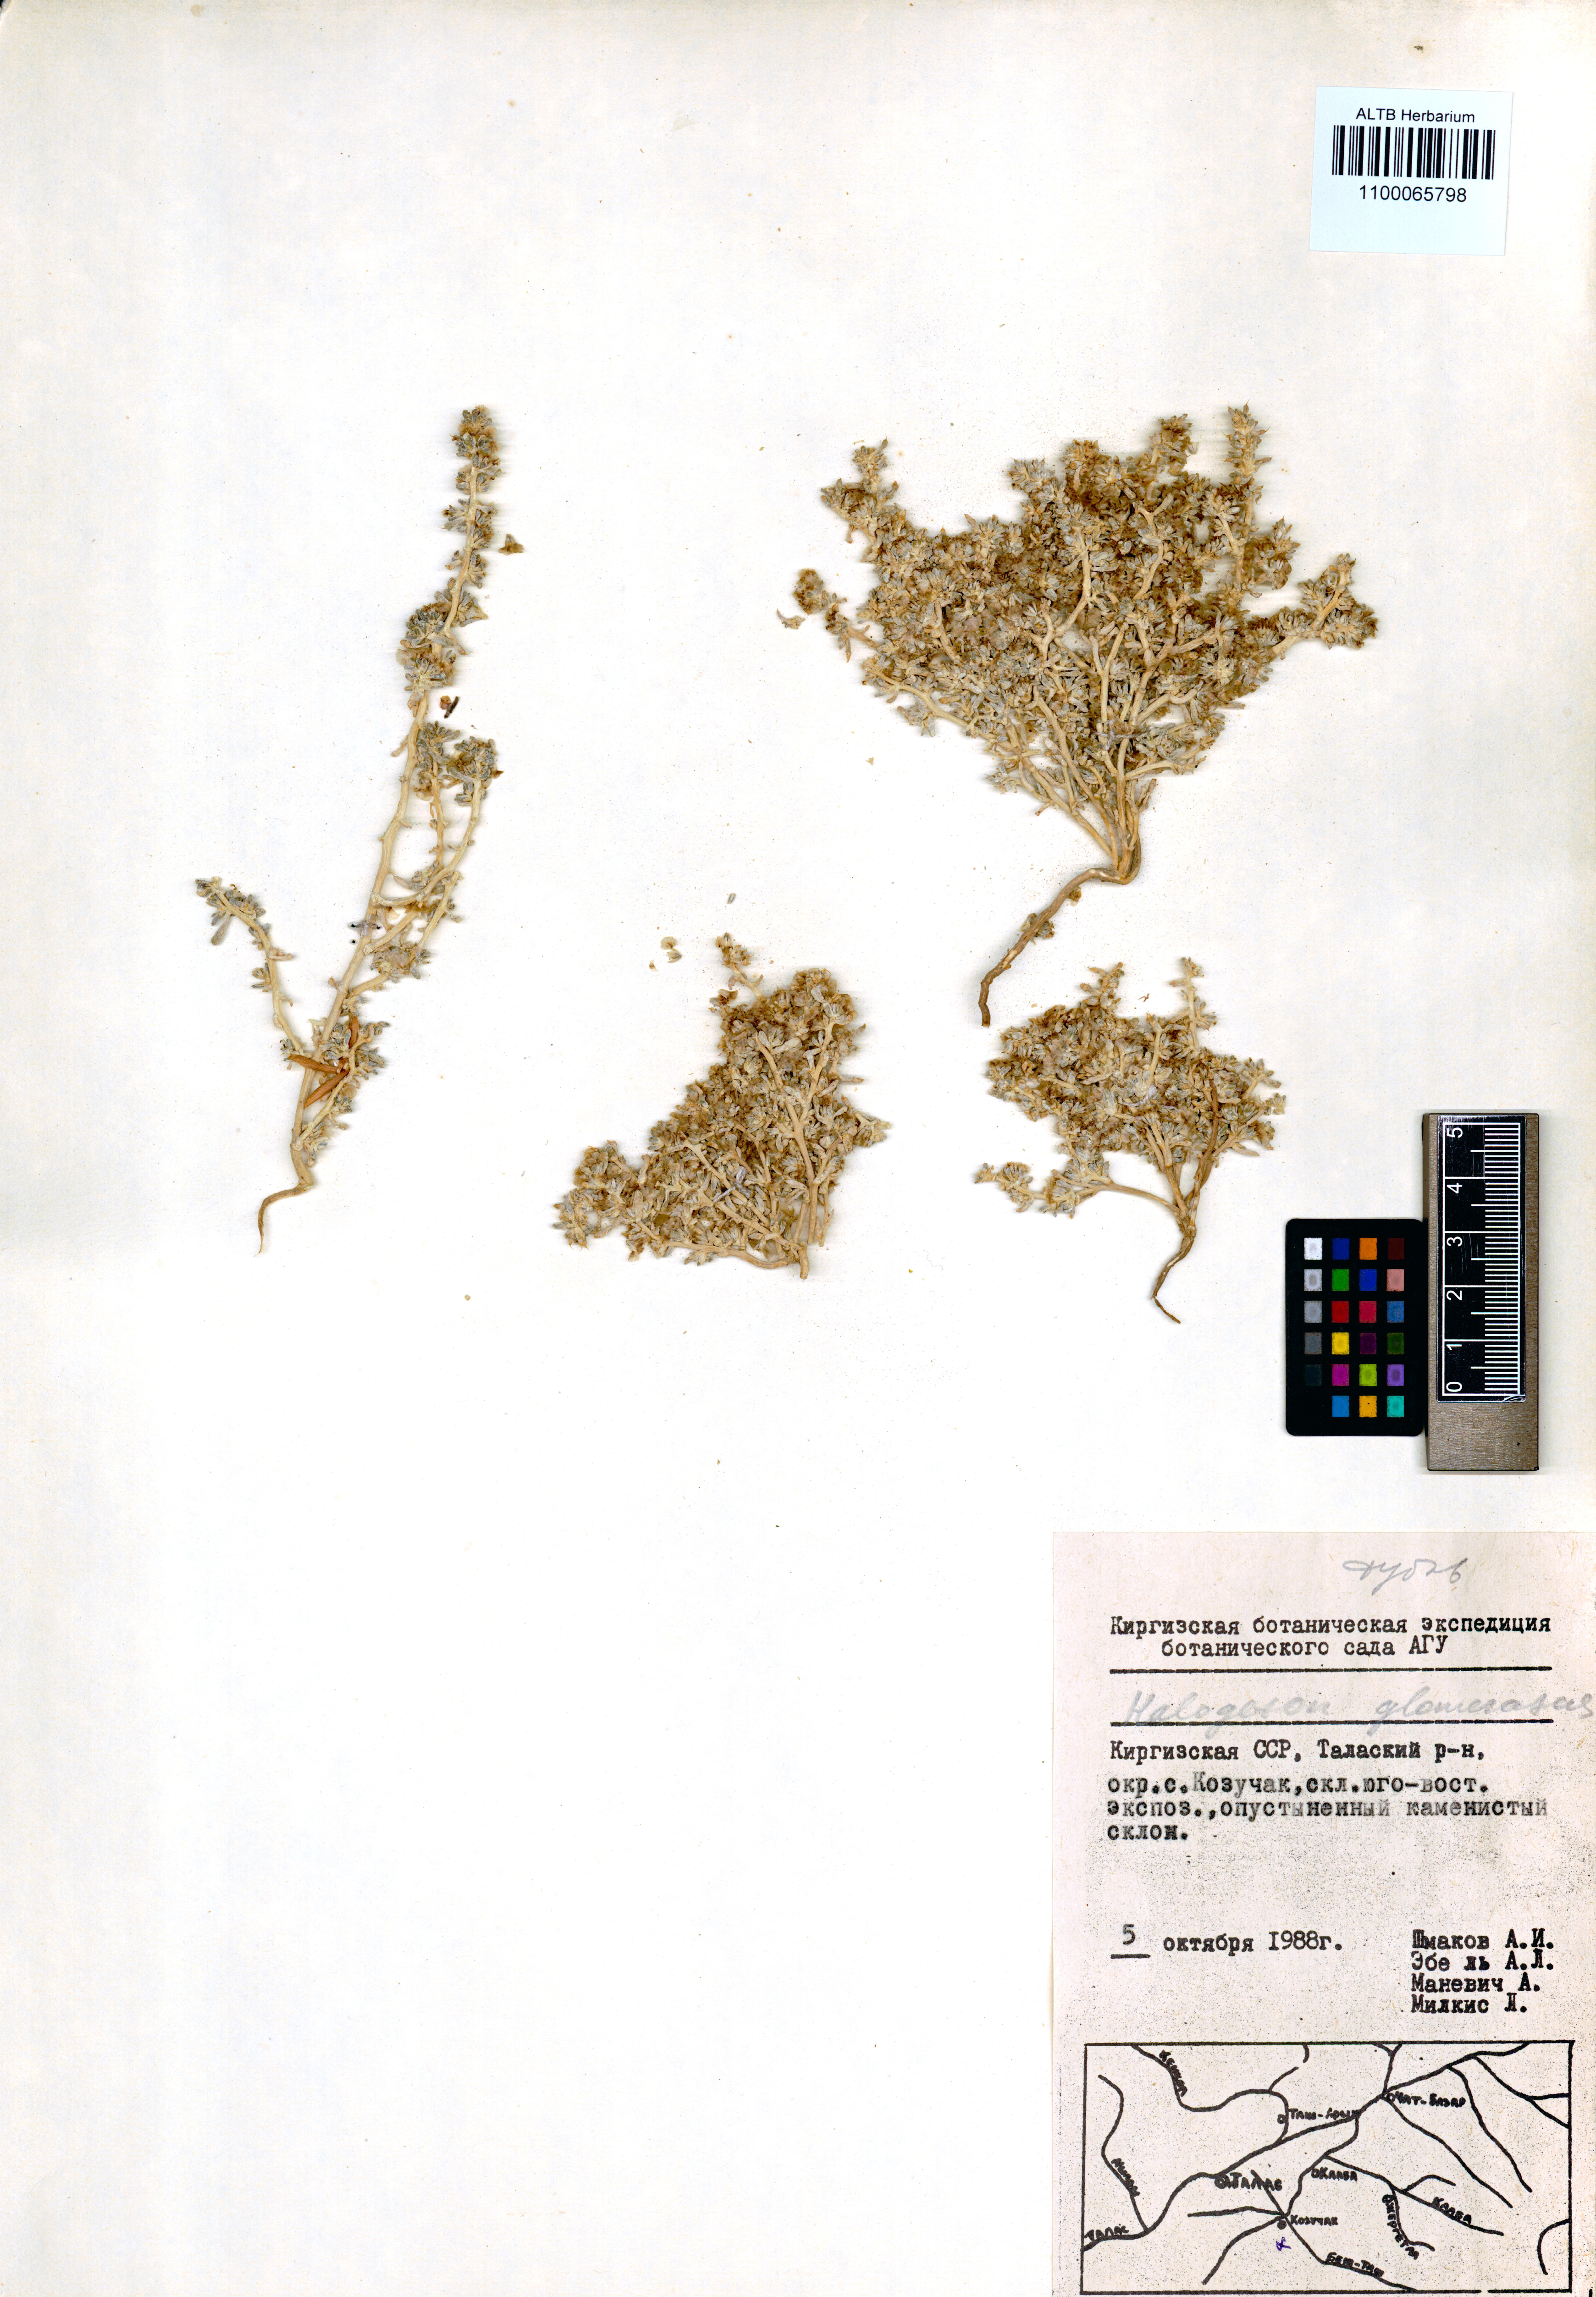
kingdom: Plantae
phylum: Tracheophyta
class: Magnoliopsida
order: Caryophyllales
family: Amaranthaceae
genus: Halogeton
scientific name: Halogeton glomeratus
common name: Saltlover
